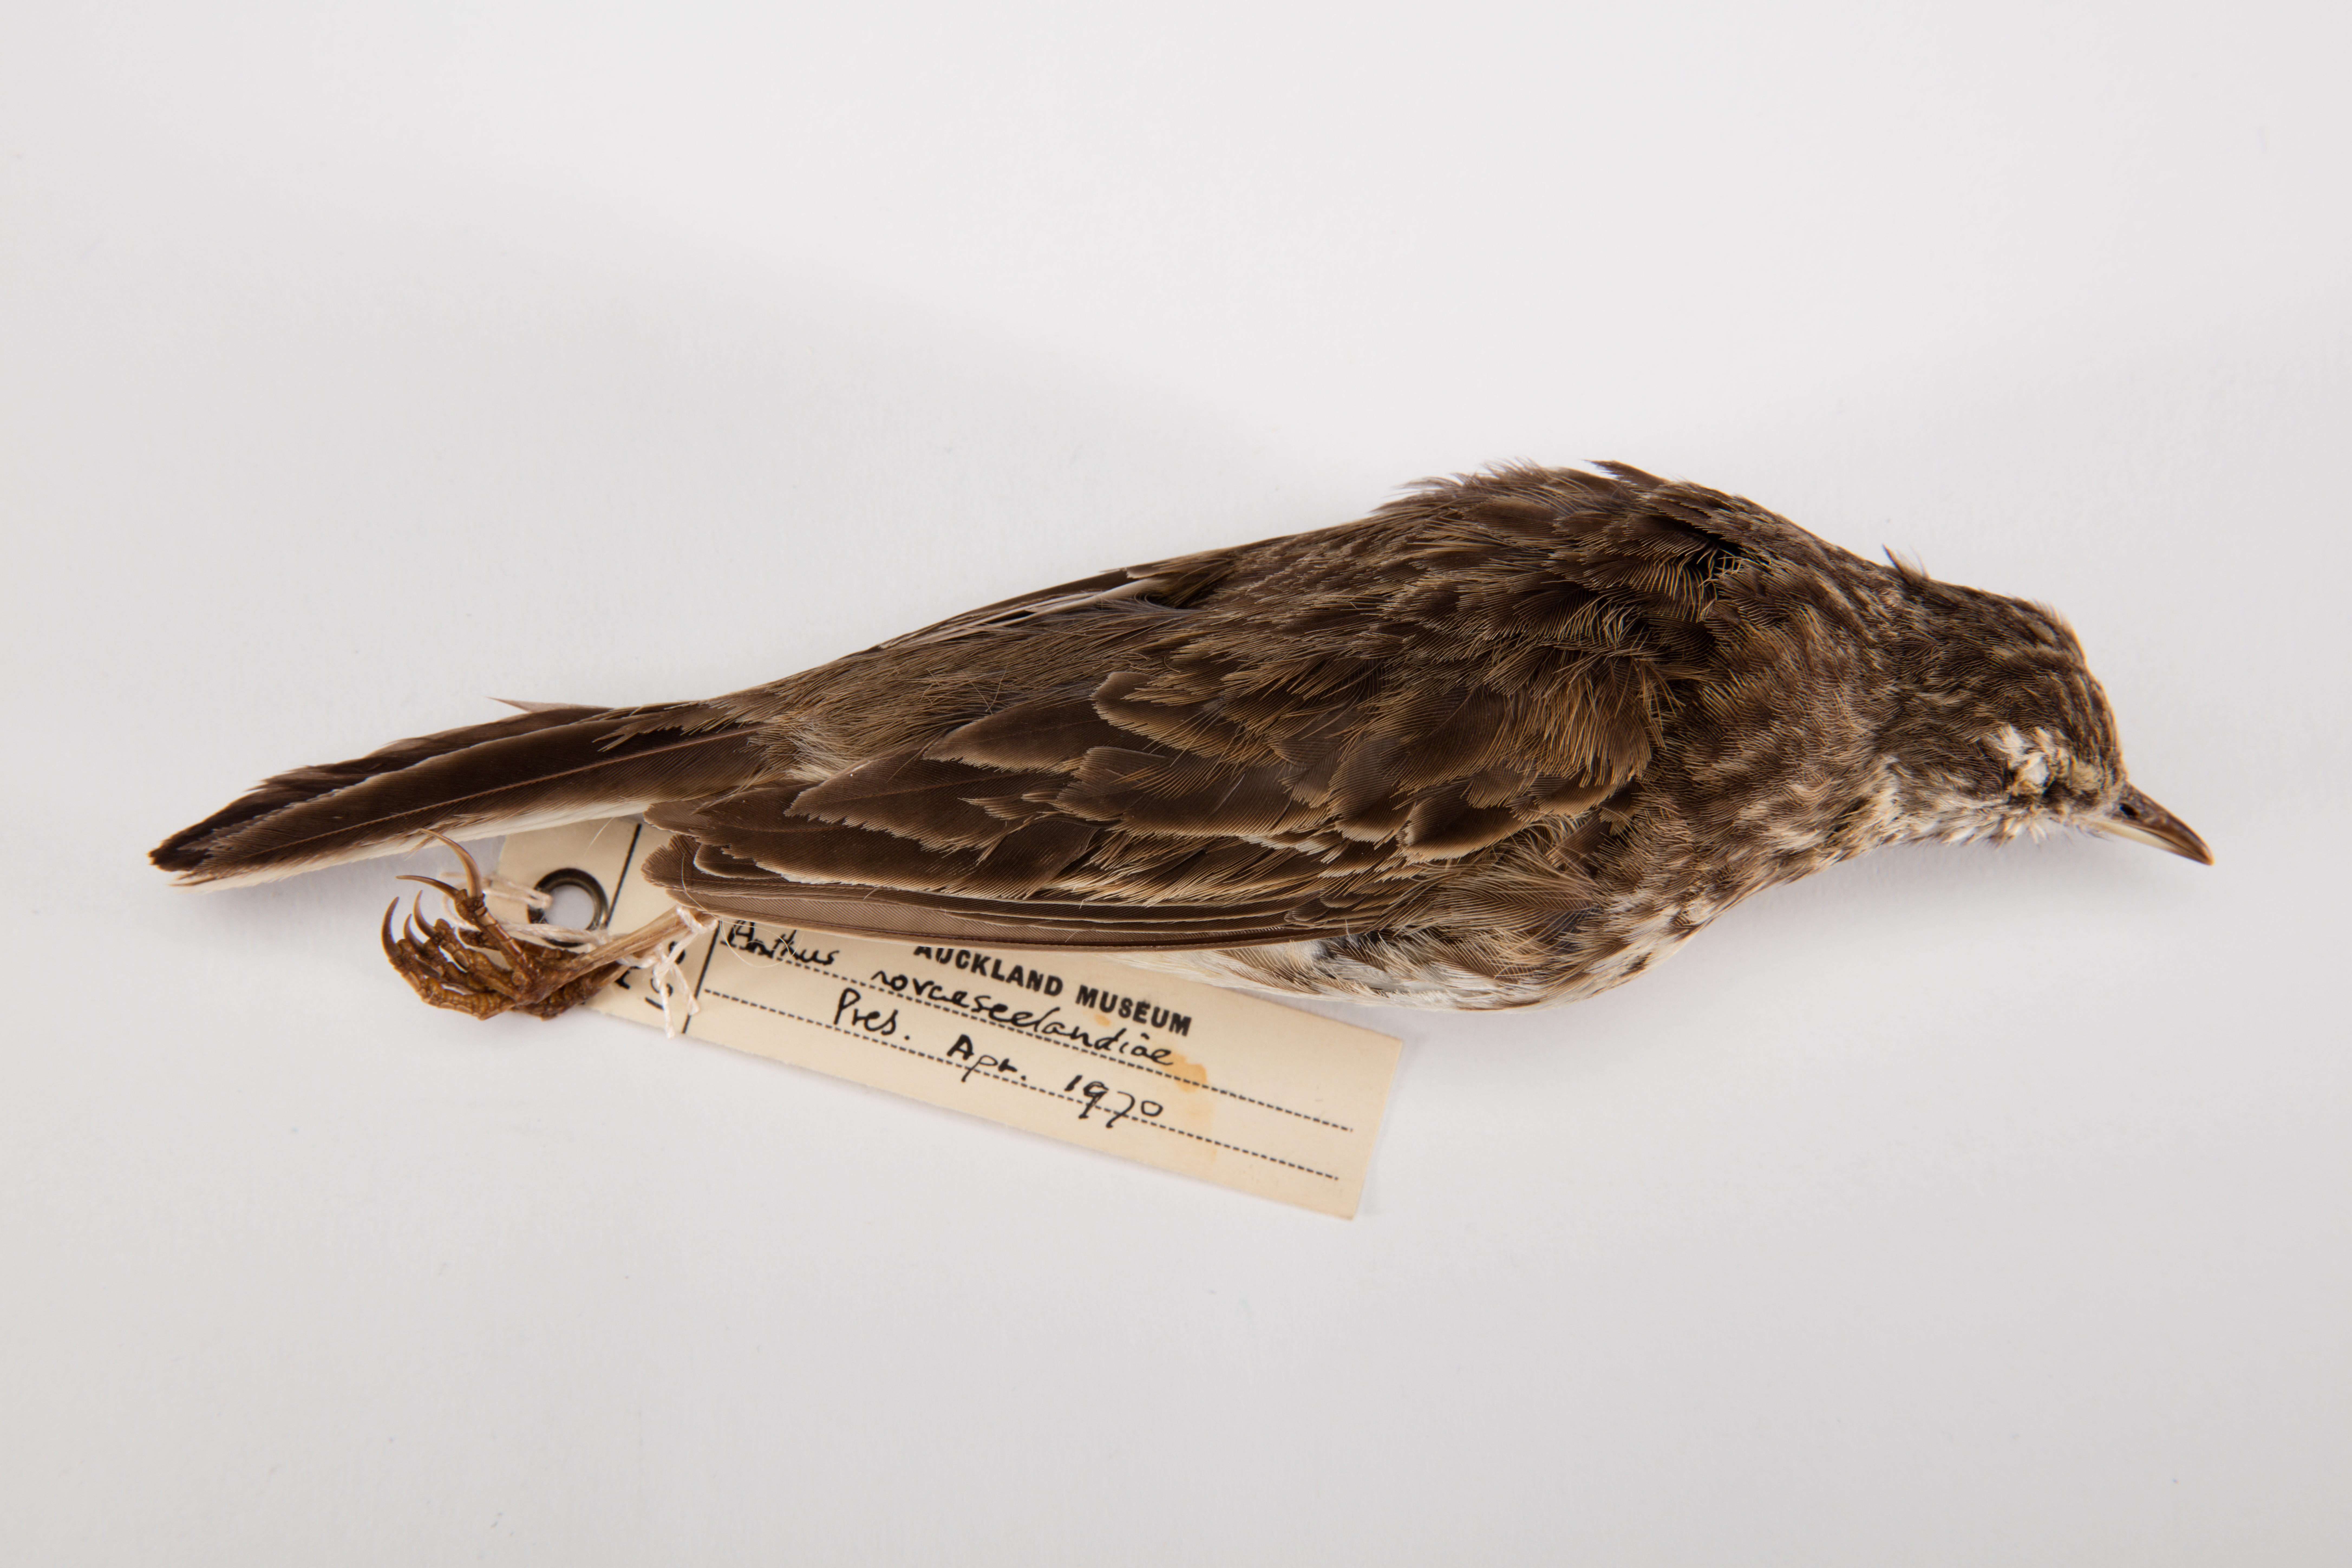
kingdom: Animalia
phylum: Chordata
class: Aves
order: Passeriformes
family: Motacillidae
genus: Anthus
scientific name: Anthus novaeseelandiae
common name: New zealand pipit
